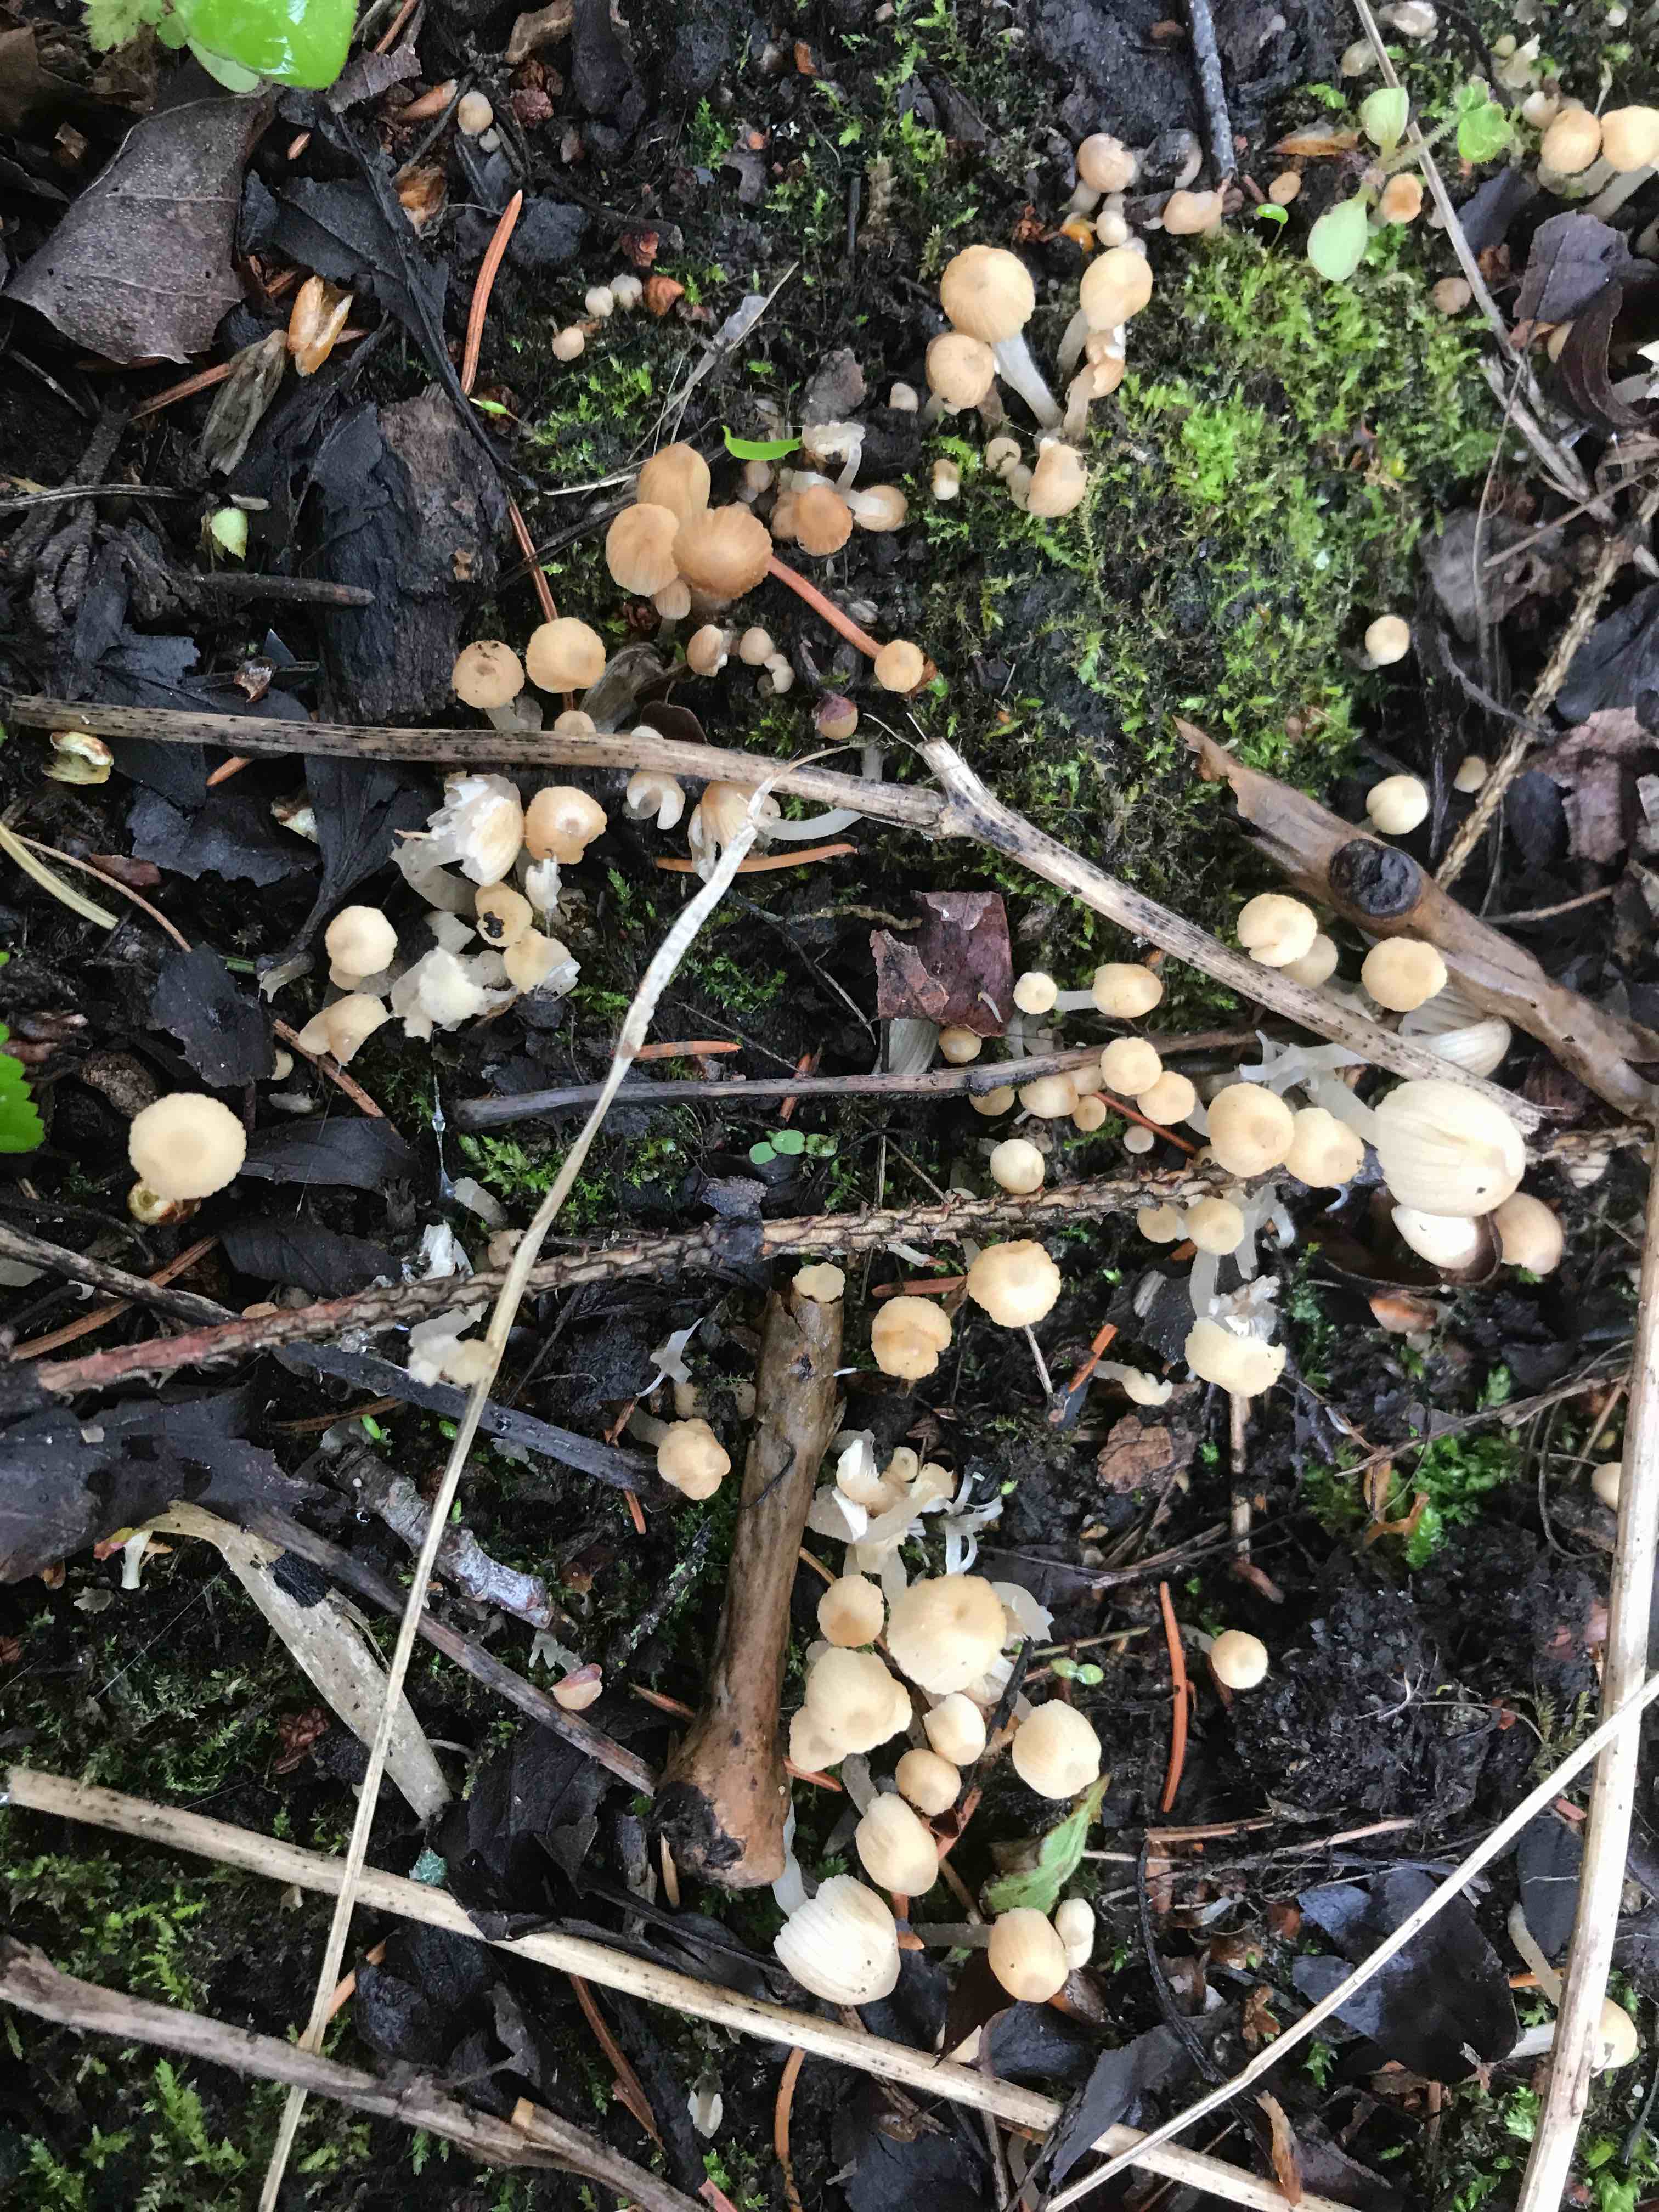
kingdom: Fungi
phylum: Basidiomycota
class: Agaricomycetes
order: Agaricales
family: Psathyrellaceae
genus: Coprinellus
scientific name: Coprinellus disseminatus
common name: bredsået blækhat
